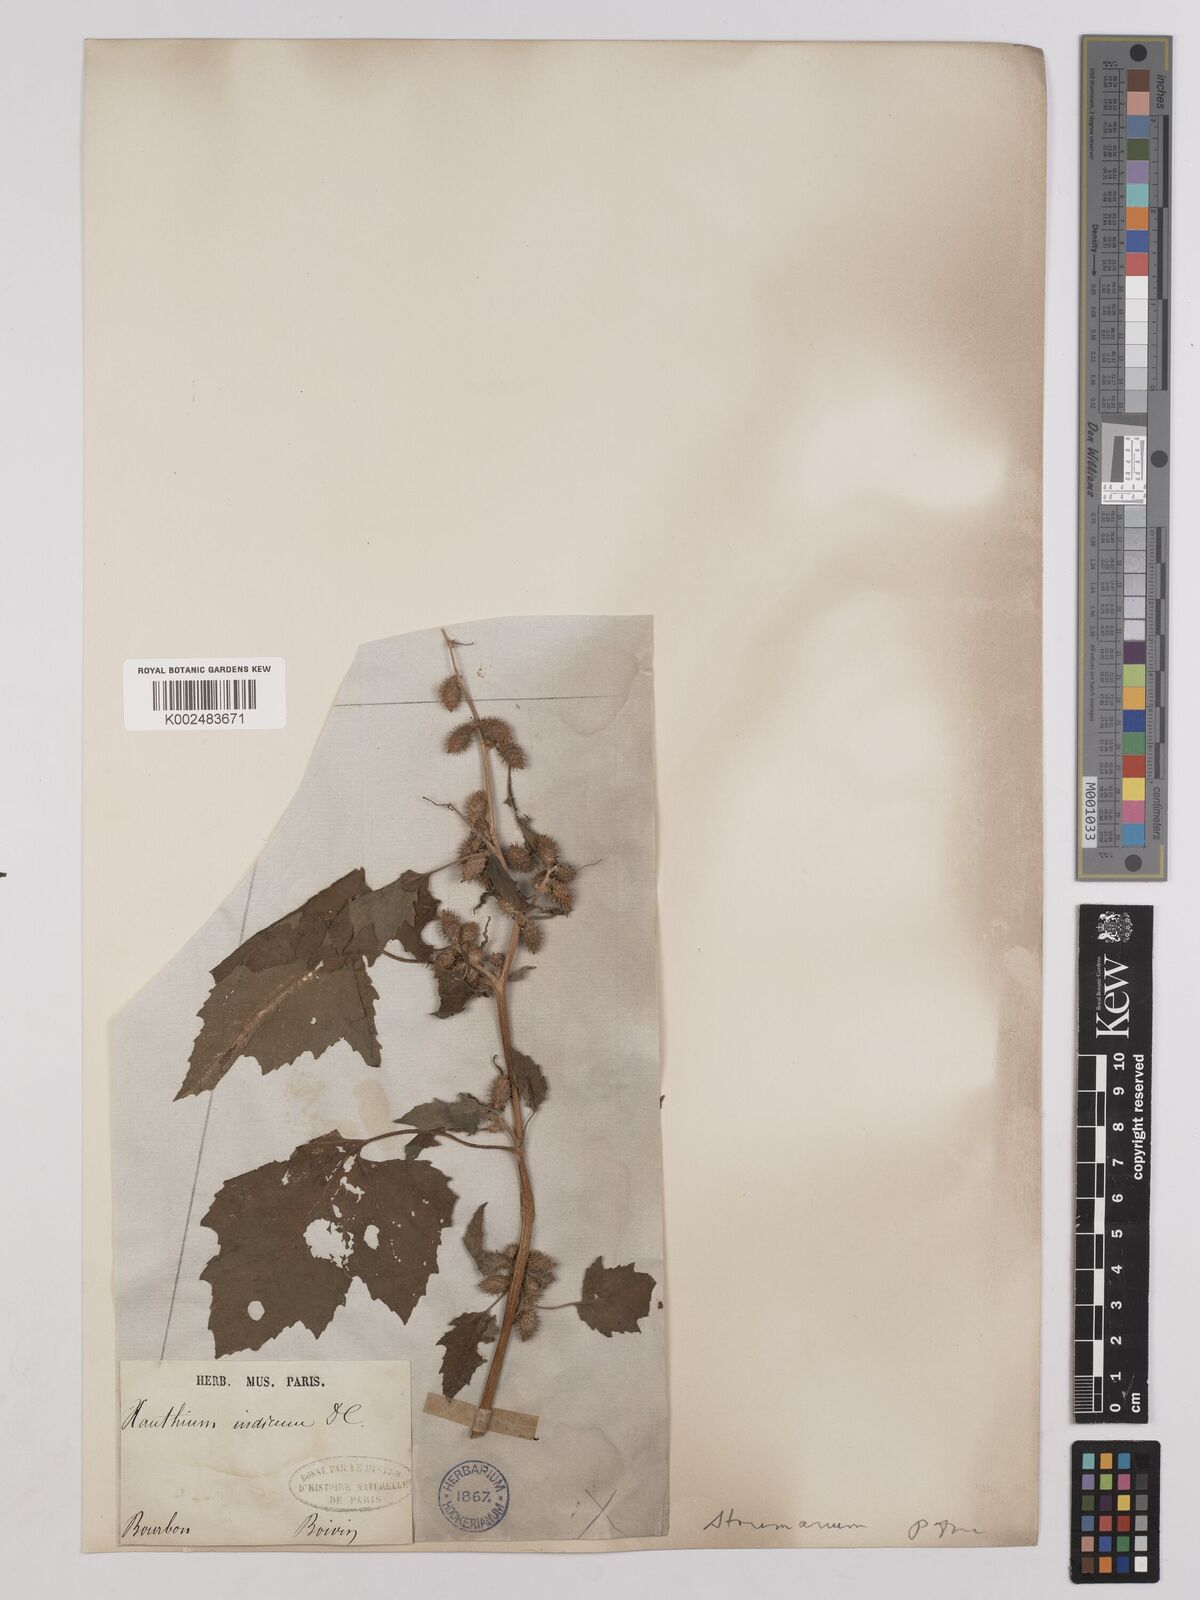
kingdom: Plantae
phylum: Tracheophyta
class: Magnoliopsida
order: Asterales
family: Asteraceae
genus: Xanthium
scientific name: Xanthium strumarium
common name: Rough cocklebur
